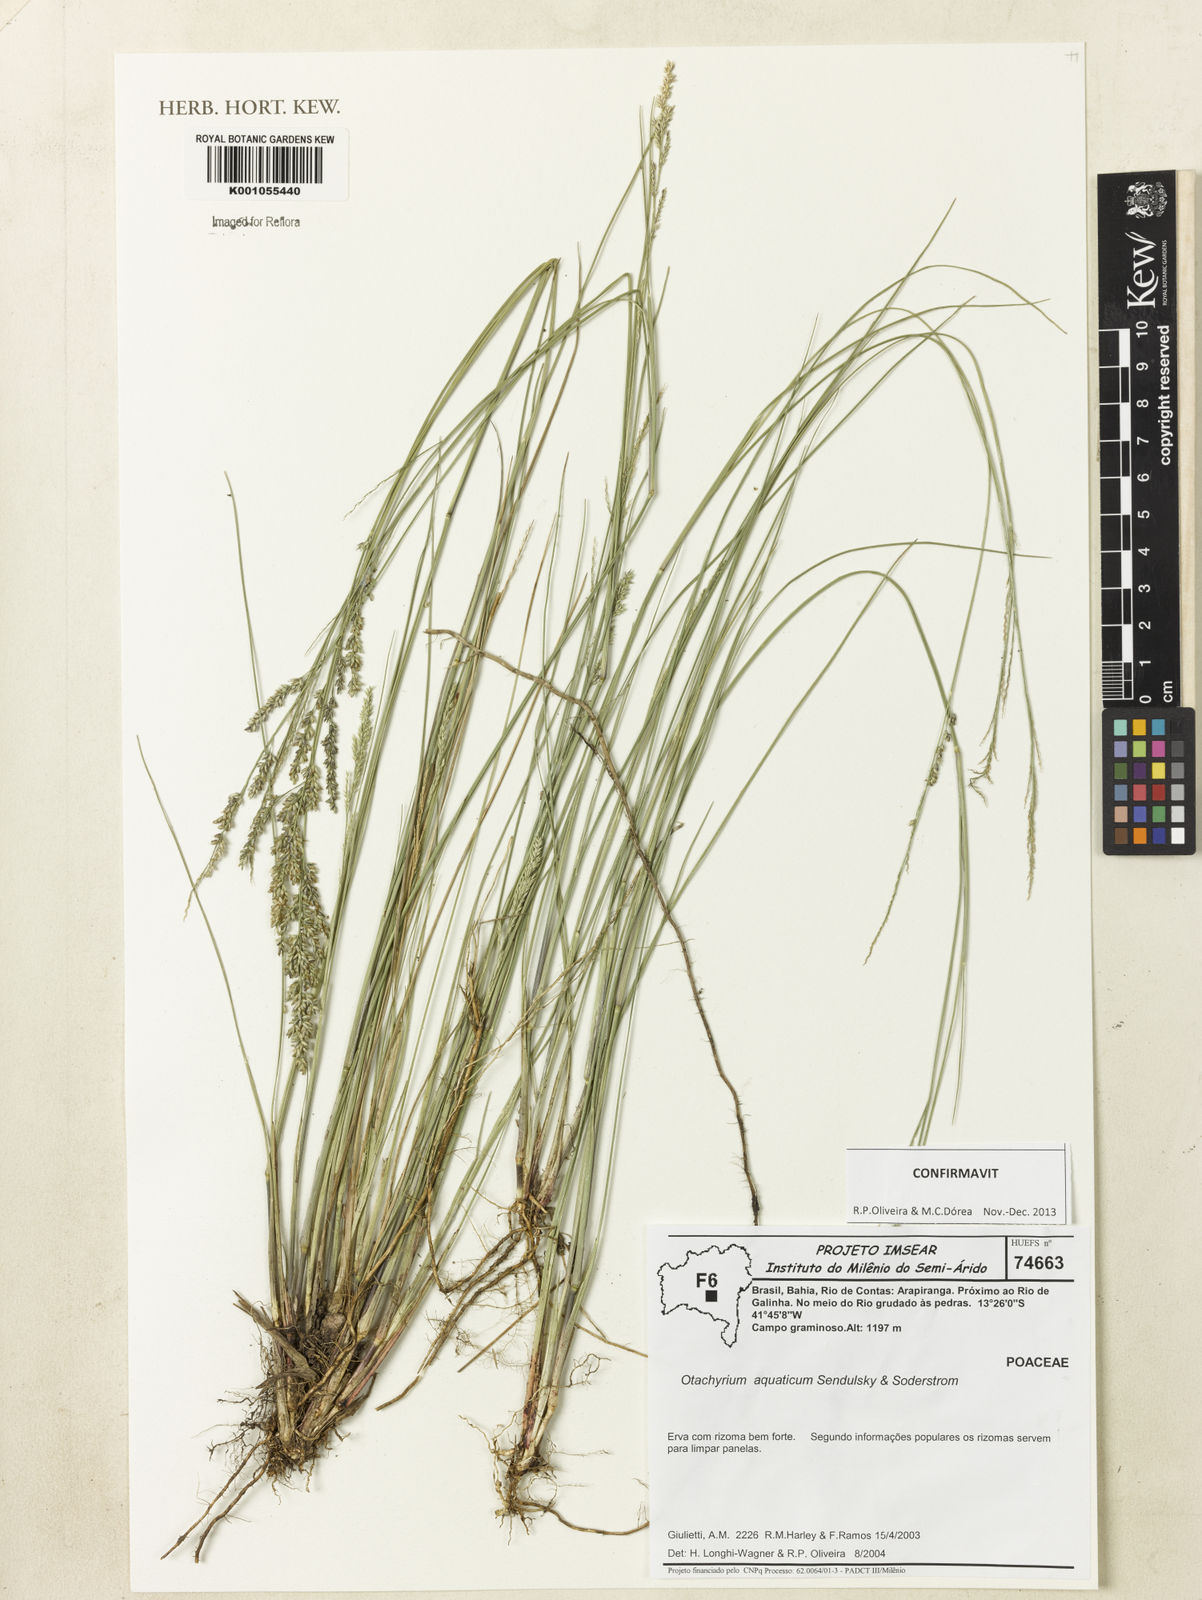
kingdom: Plantae
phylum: Tracheophyta
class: Liliopsida
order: Poales
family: Poaceae
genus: Otachyrium
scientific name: Otachyrium aquaticum
